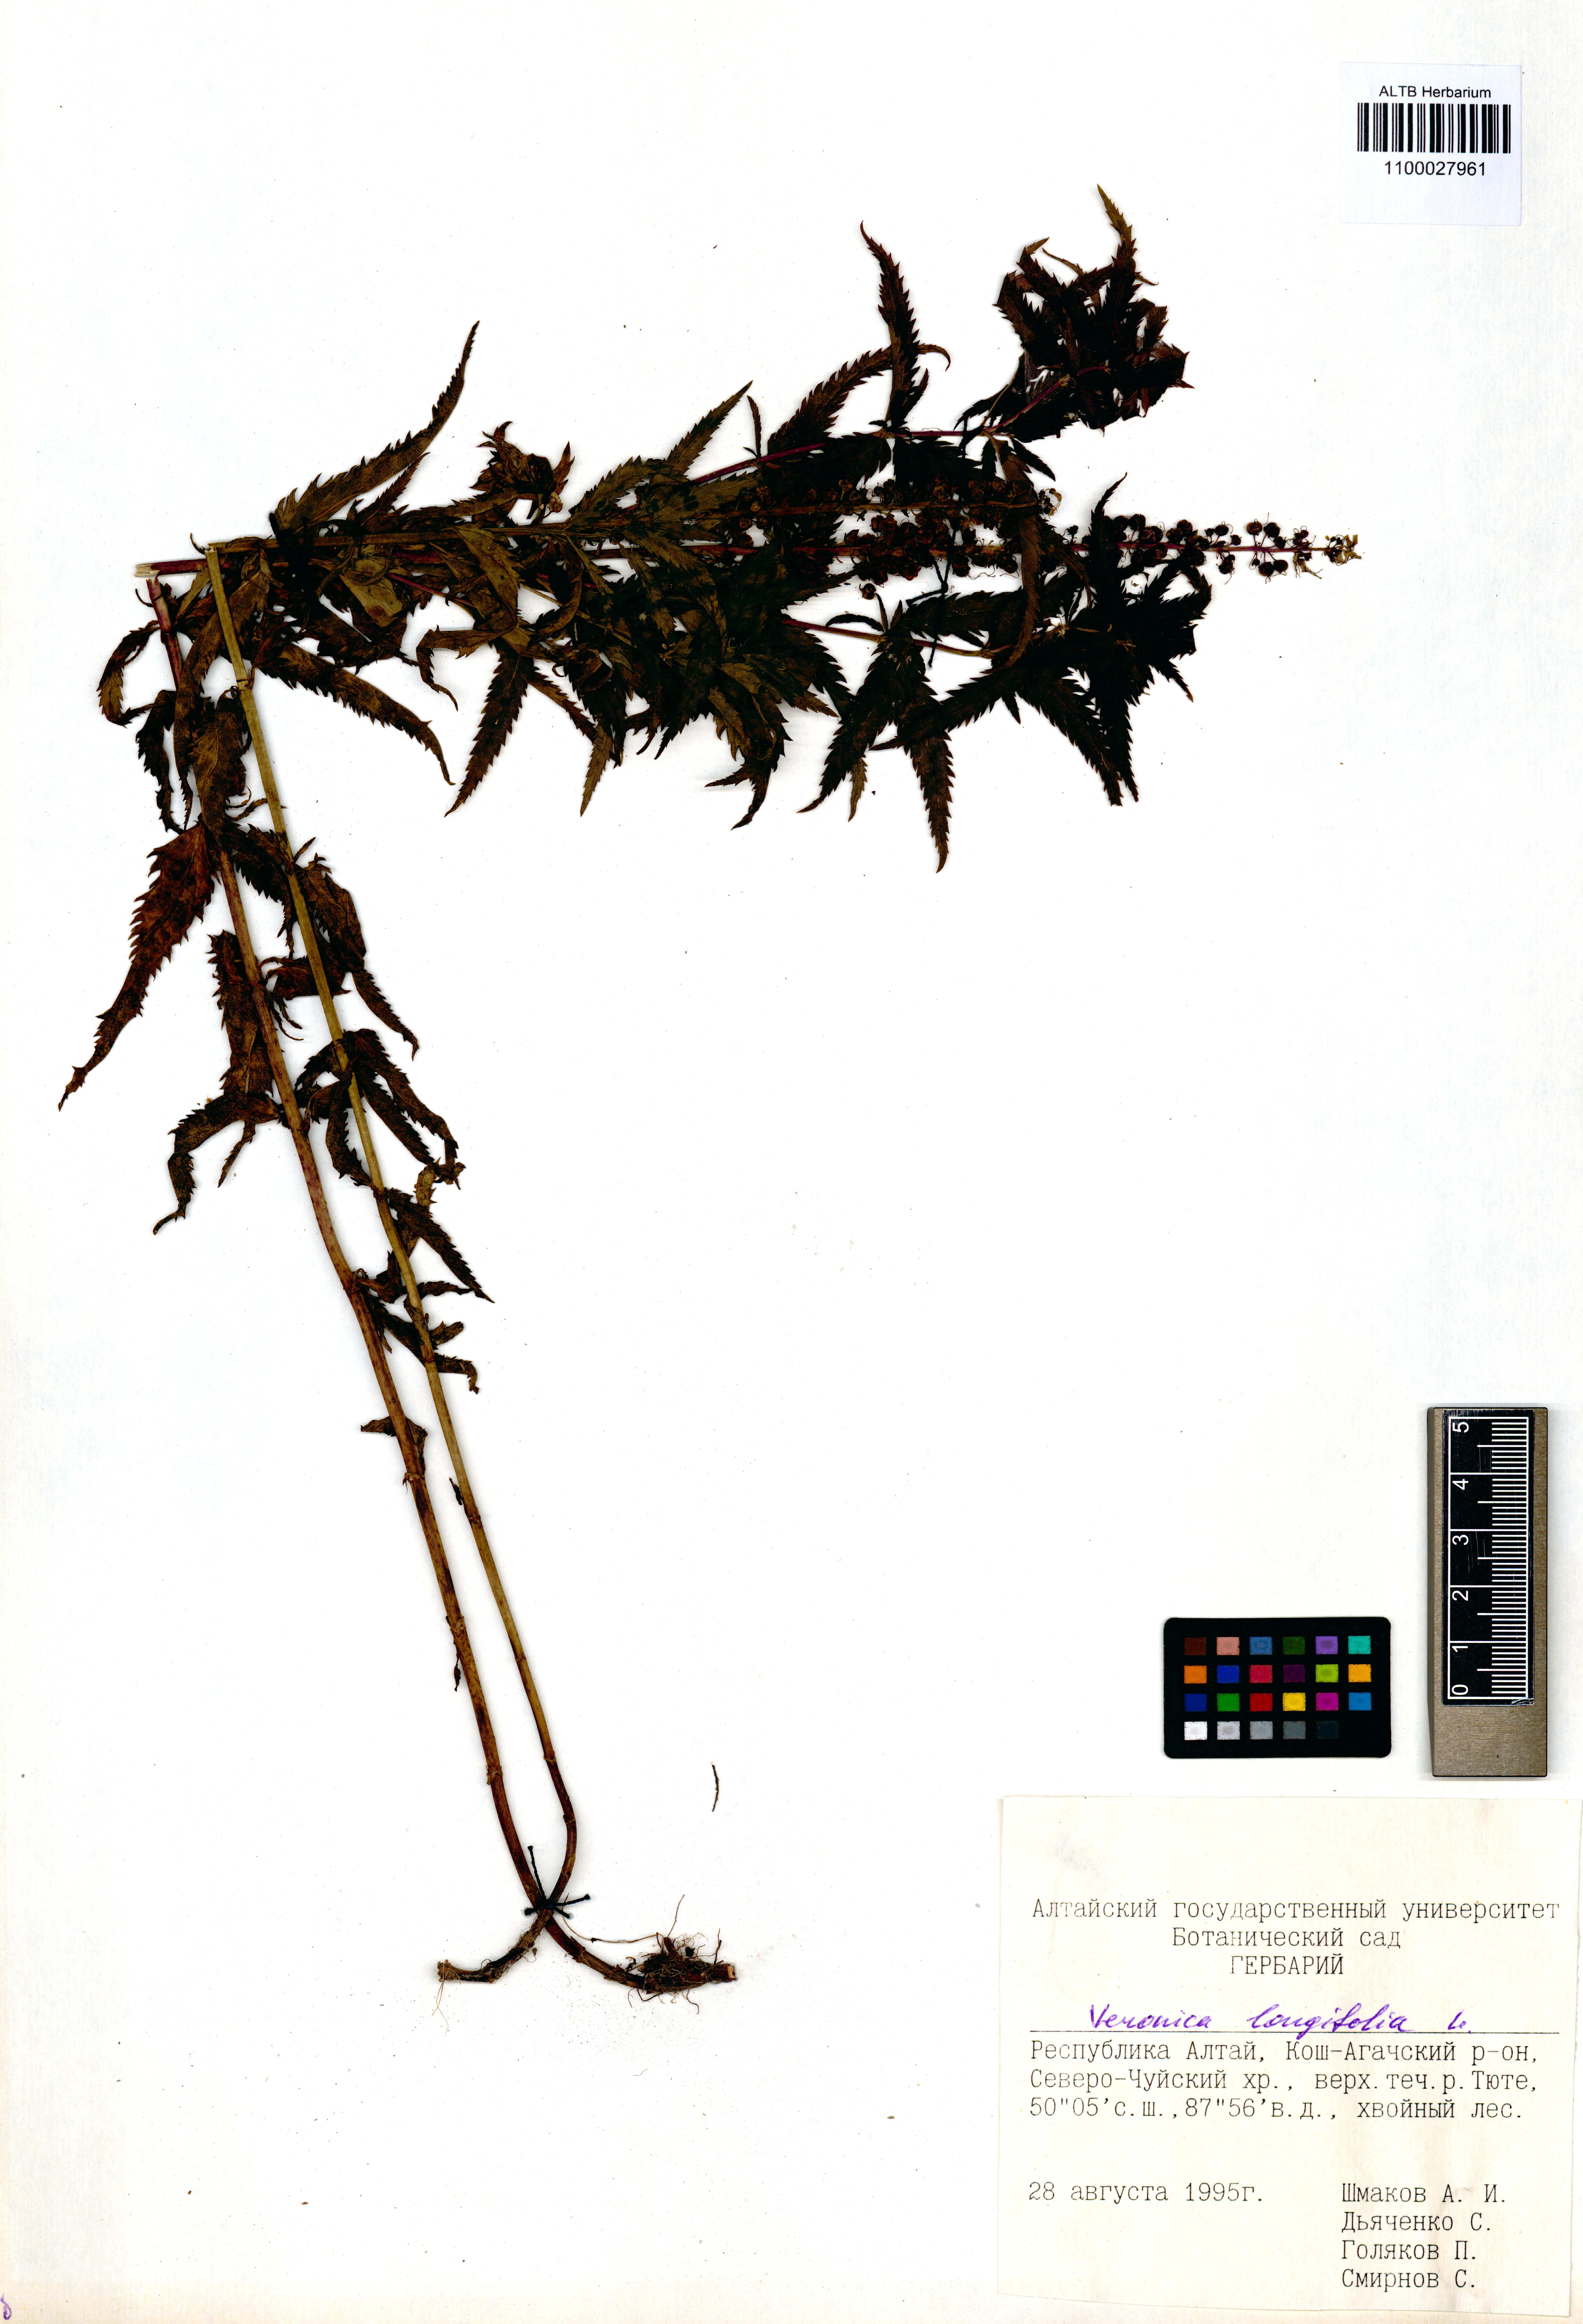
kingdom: Plantae
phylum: Tracheophyta
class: Magnoliopsida
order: Lamiales
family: Plantaginaceae
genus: Veronica
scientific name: Veronica longifolia
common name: Garden speedwell
